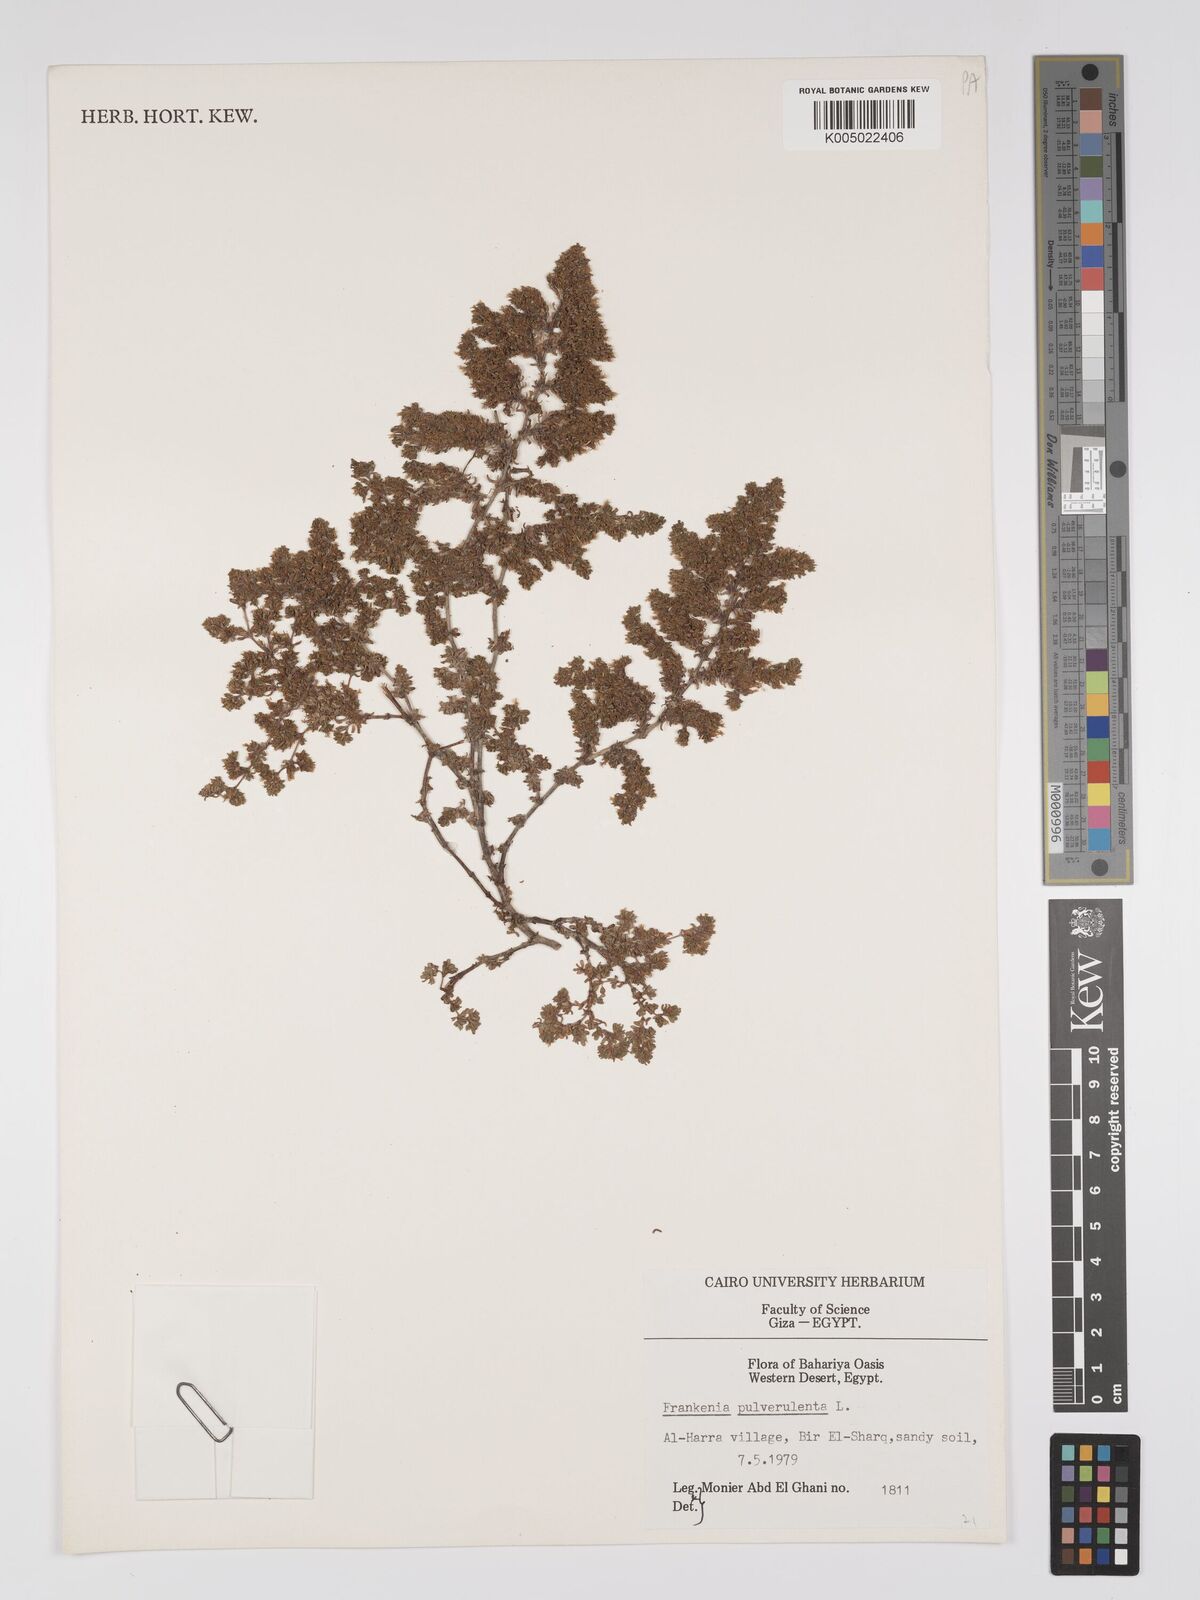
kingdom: Plantae
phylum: Tracheophyta
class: Magnoliopsida
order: Caryophyllales
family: Frankeniaceae
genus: Frankenia
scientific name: Frankenia pulverulenta
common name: European seaheath
